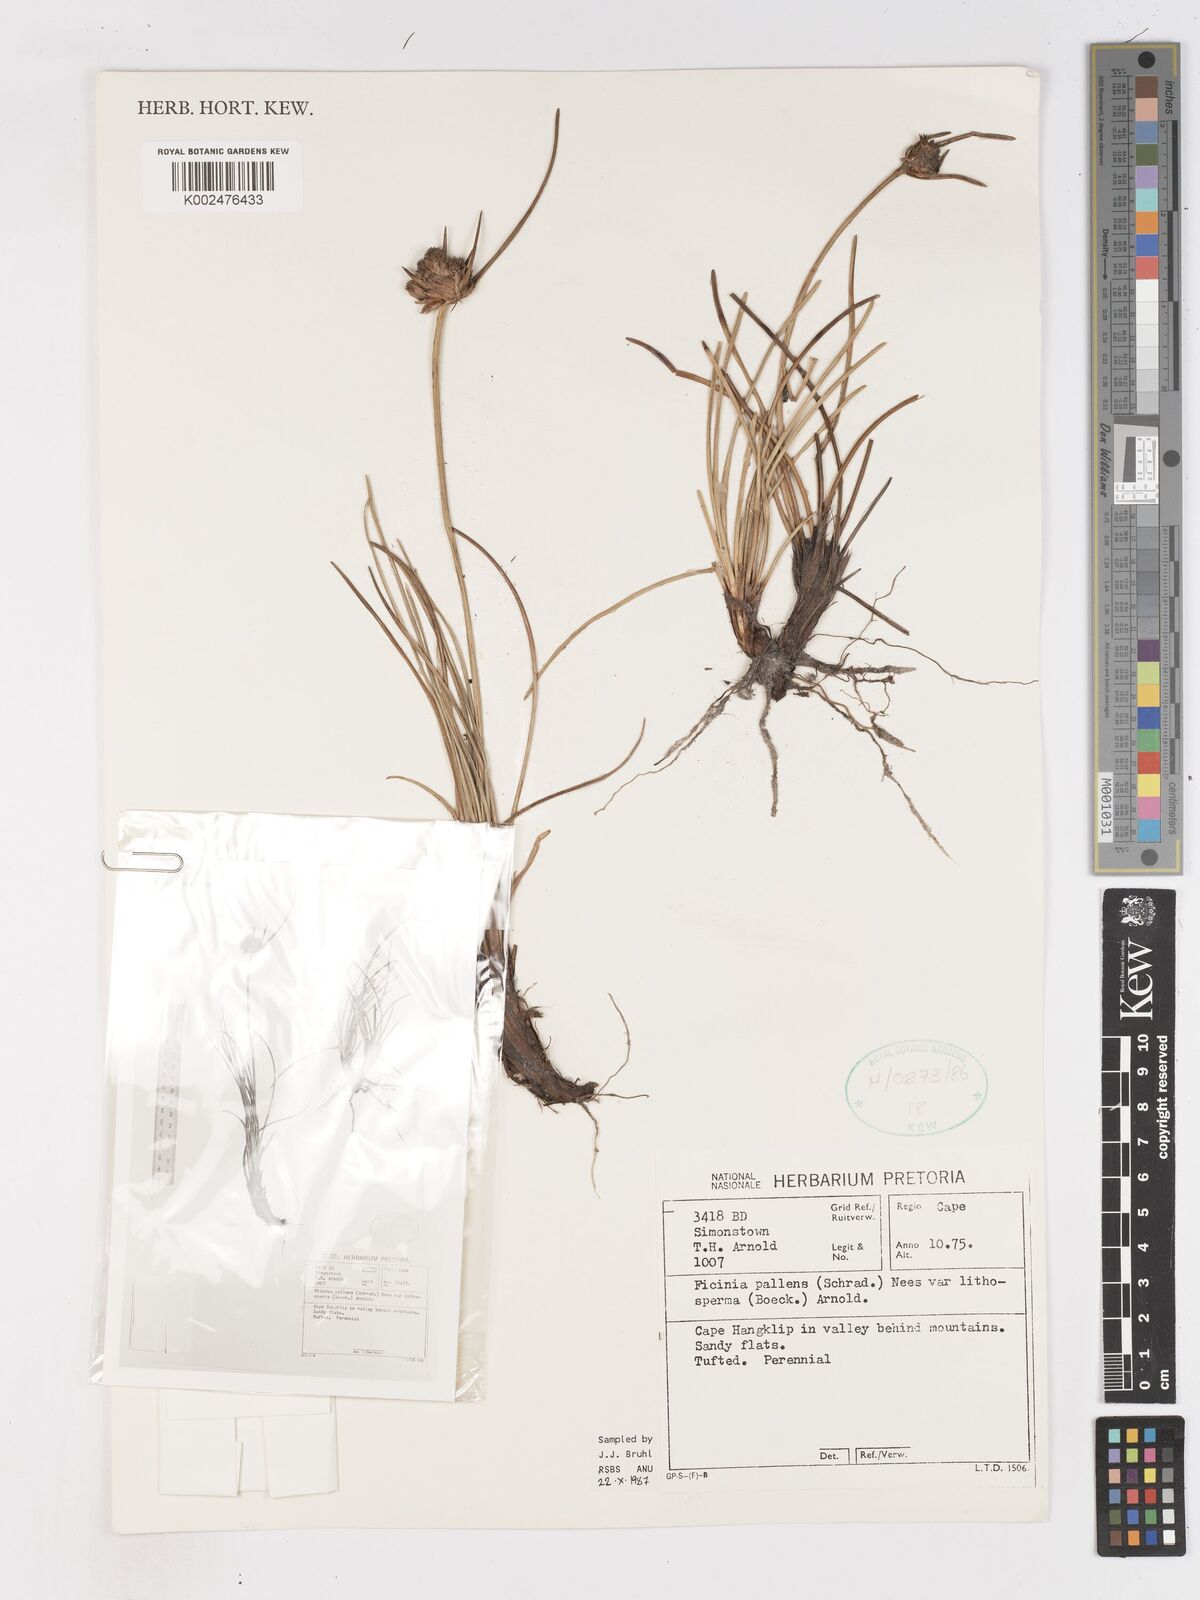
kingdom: Plantae
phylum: Tracheophyta
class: Liliopsida
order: Poales
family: Cyperaceae
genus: Ficinia
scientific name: Ficinia pallens
